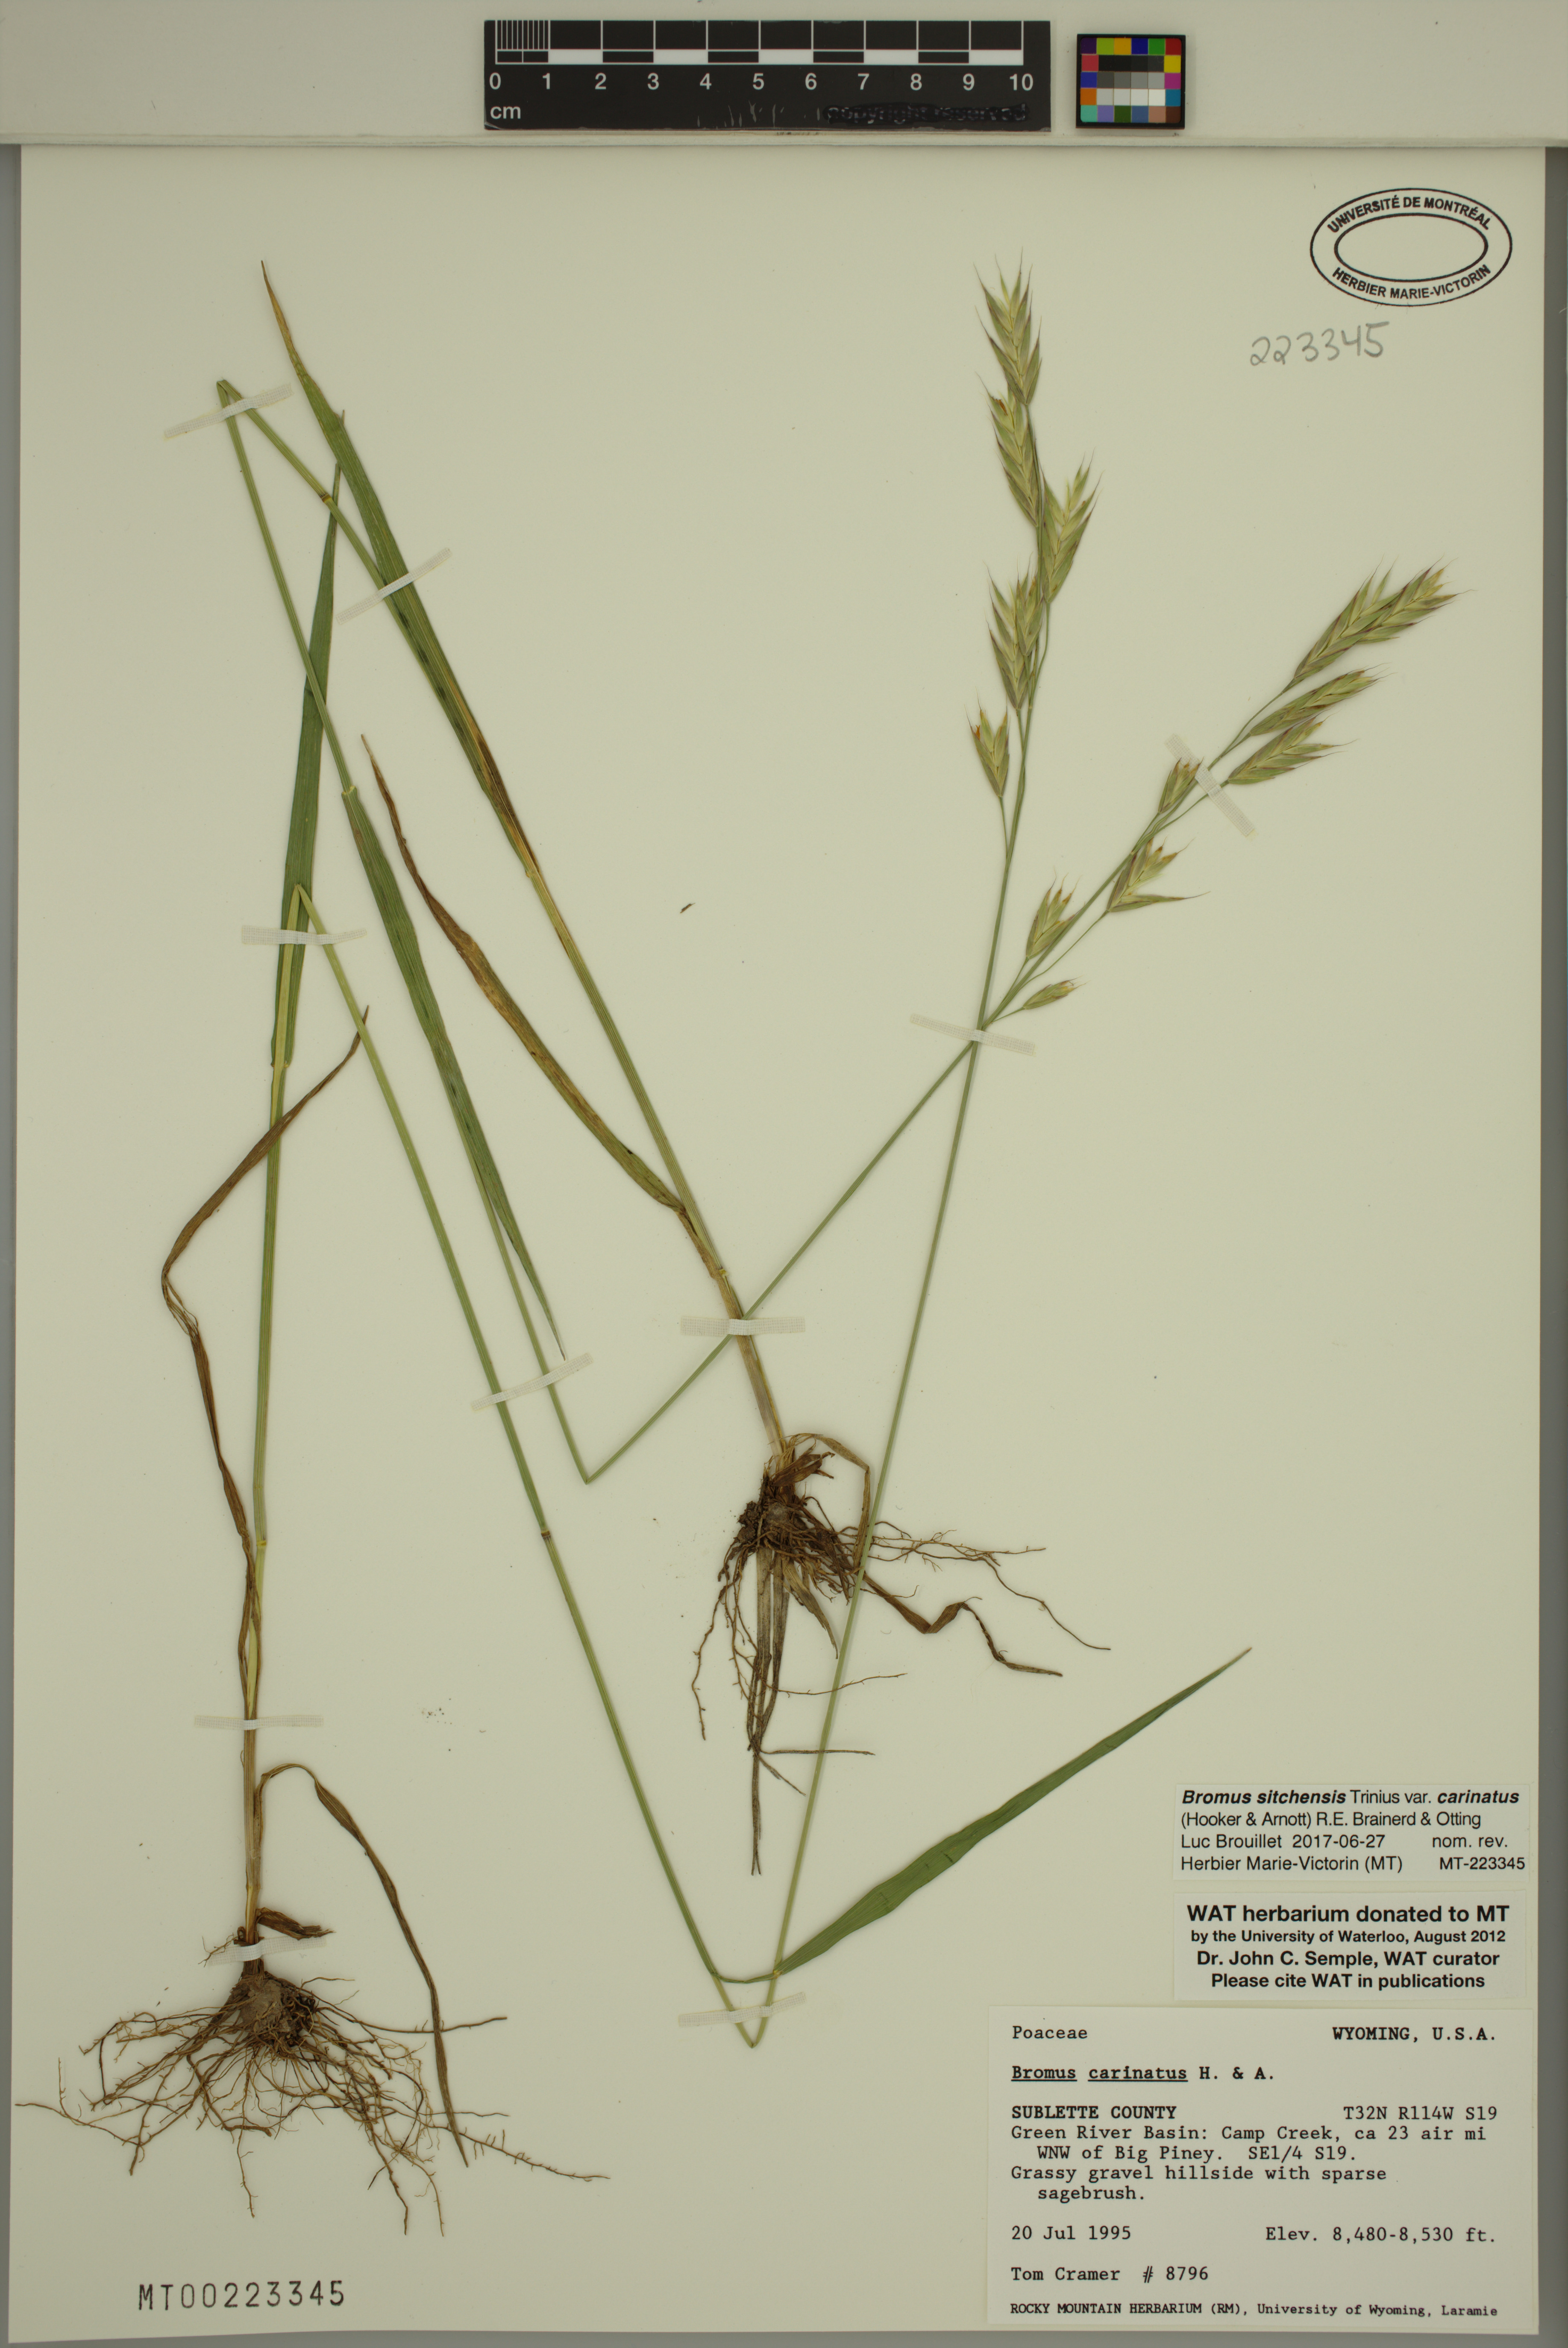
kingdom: Plantae
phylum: Tracheophyta
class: Liliopsida
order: Poales
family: Poaceae
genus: Bromus
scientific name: Bromus carinatus
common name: Mountain brome
